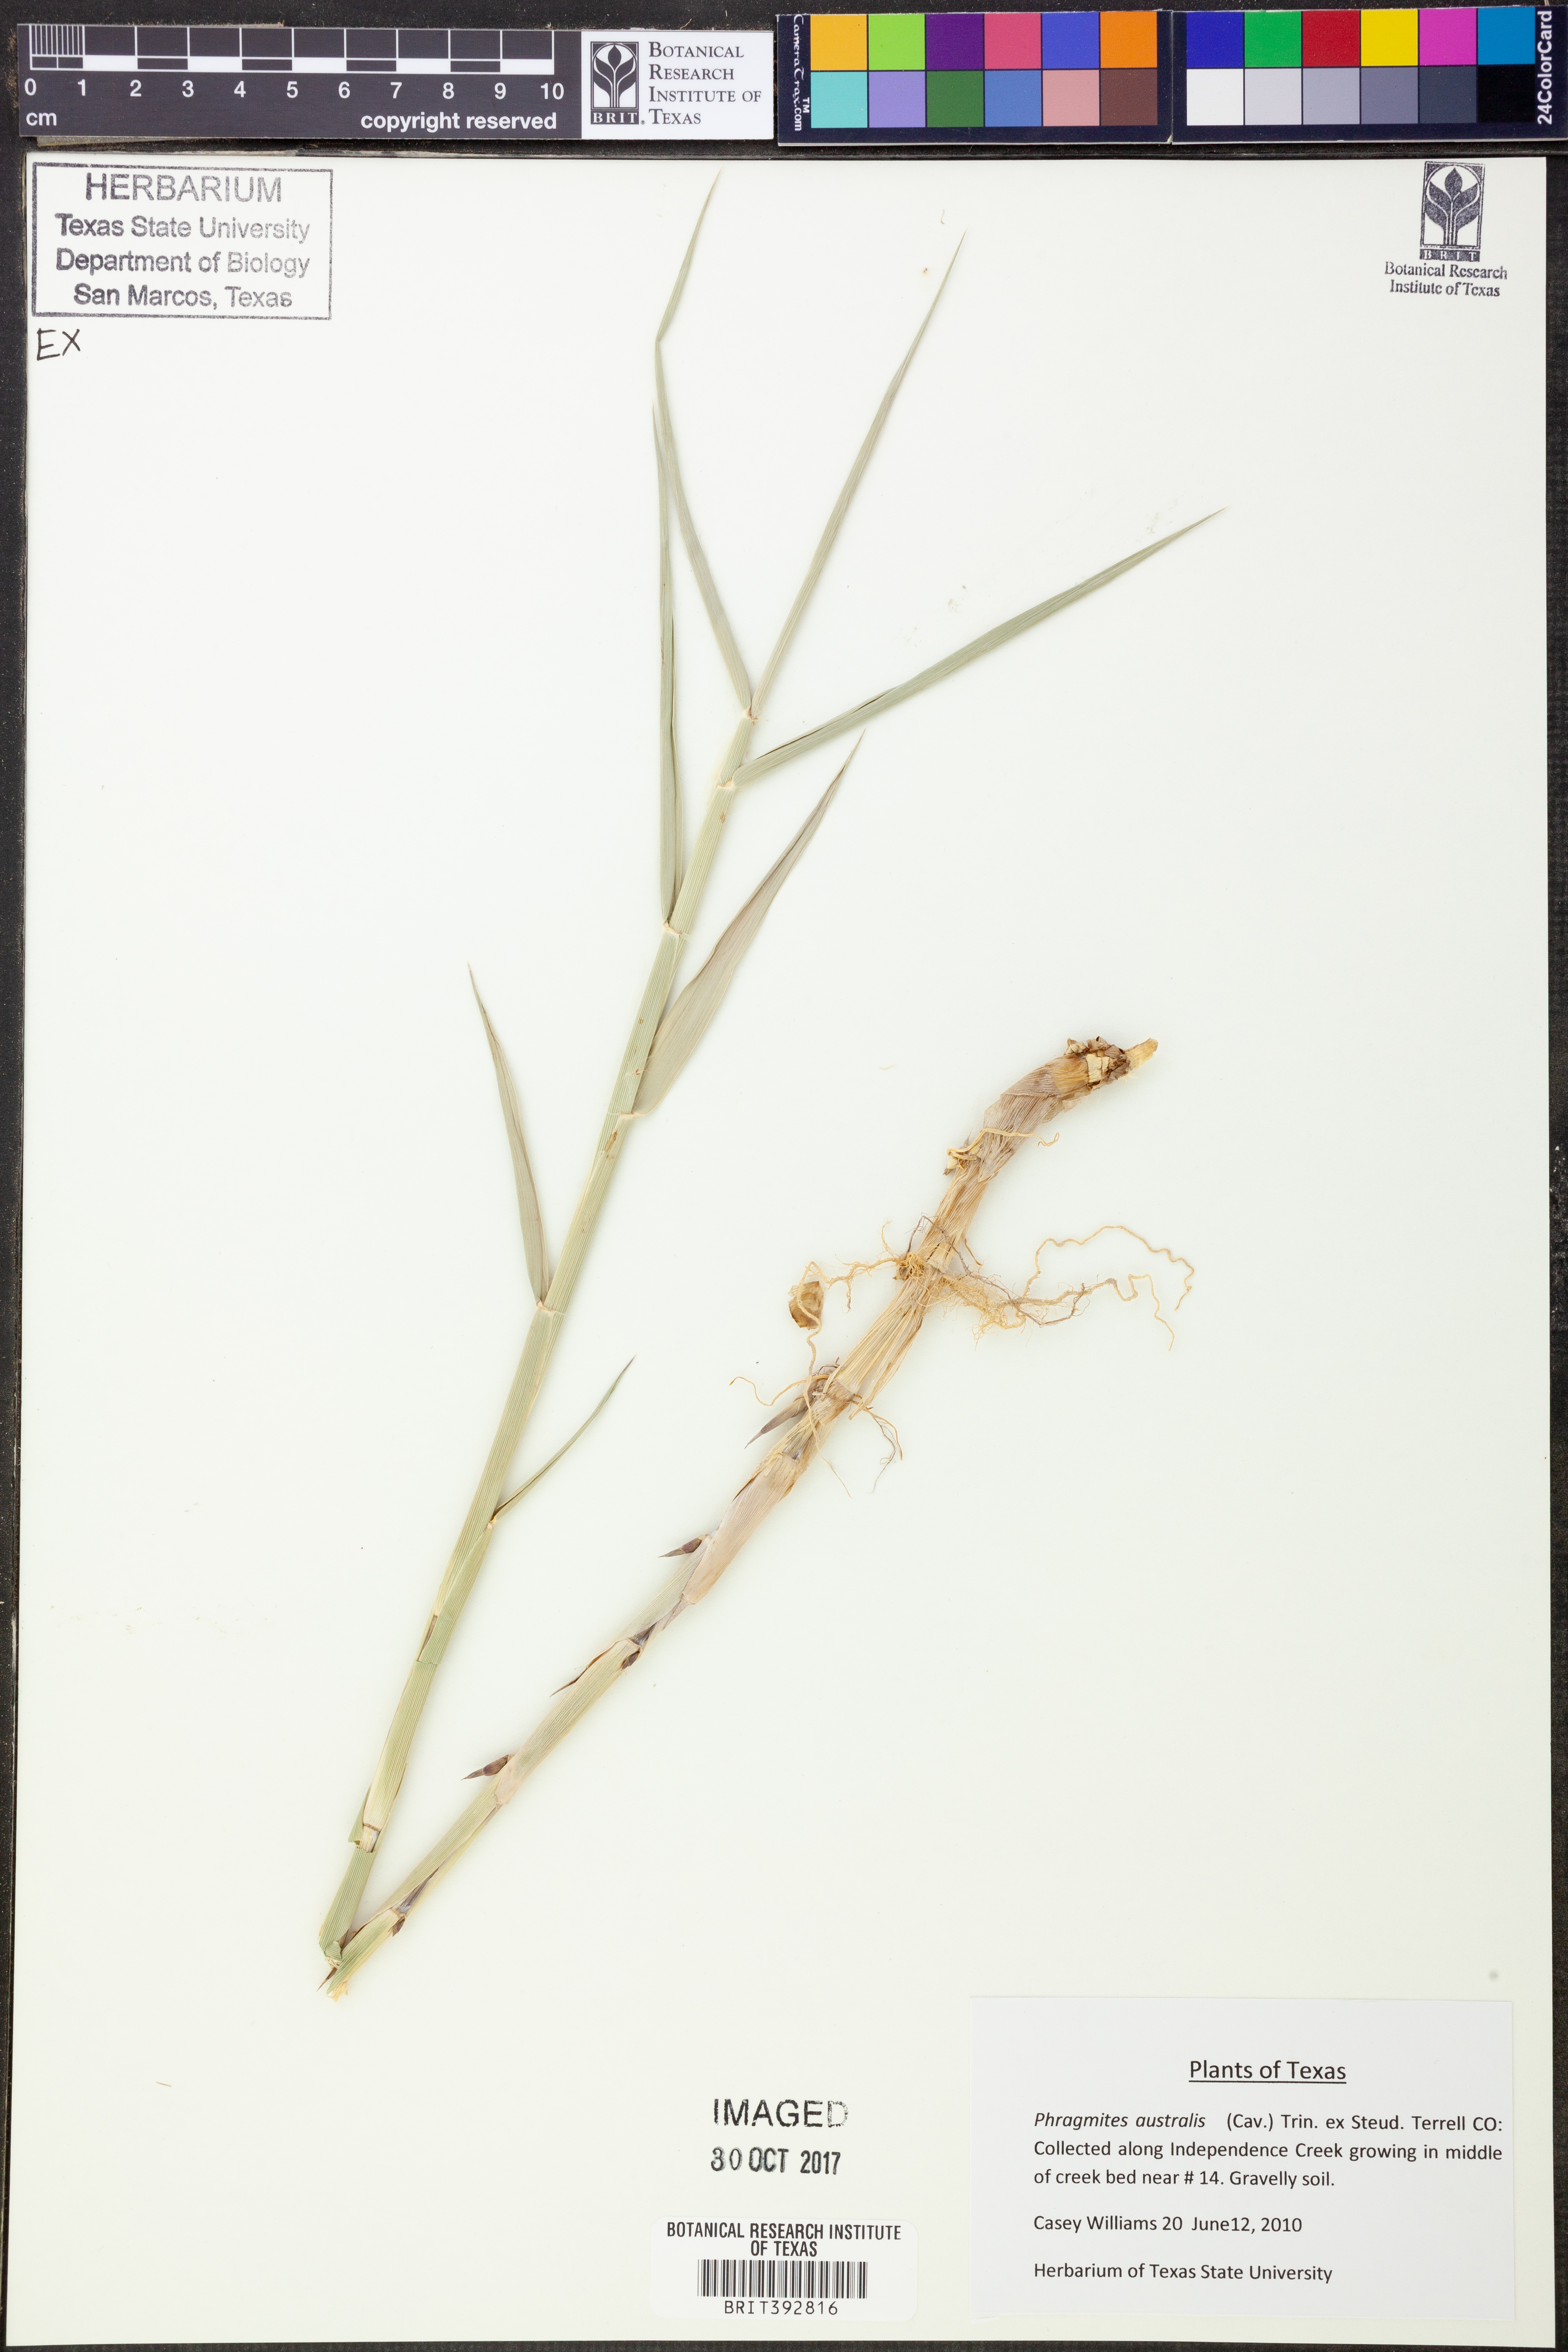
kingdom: Plantae
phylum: Tracheophyta
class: Liliopsida
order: Poales
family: Poaceae
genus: Phragmites
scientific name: Phragmites australis
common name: Common reed
